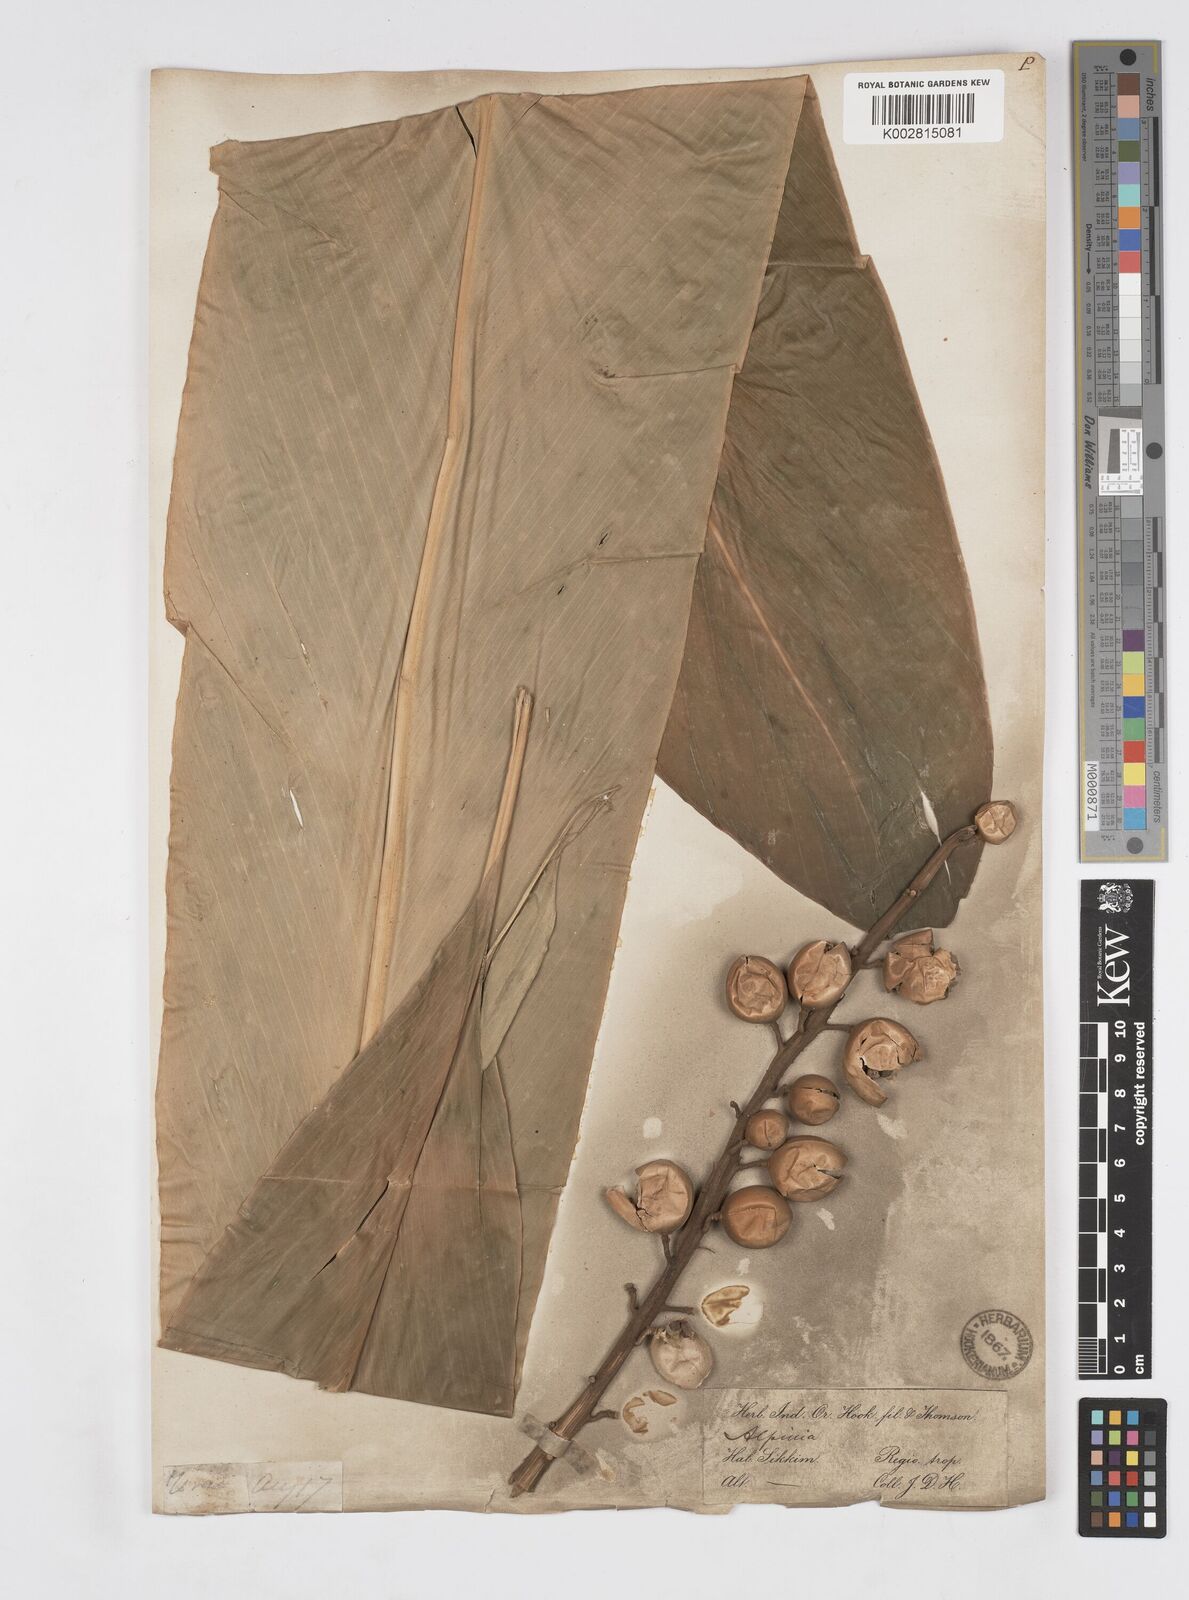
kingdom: Plantae
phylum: Tracheophyta
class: Liliopsida
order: Zingiberales
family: Zingiberaceae
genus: Alpinia
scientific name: Alpinia malaccensis
